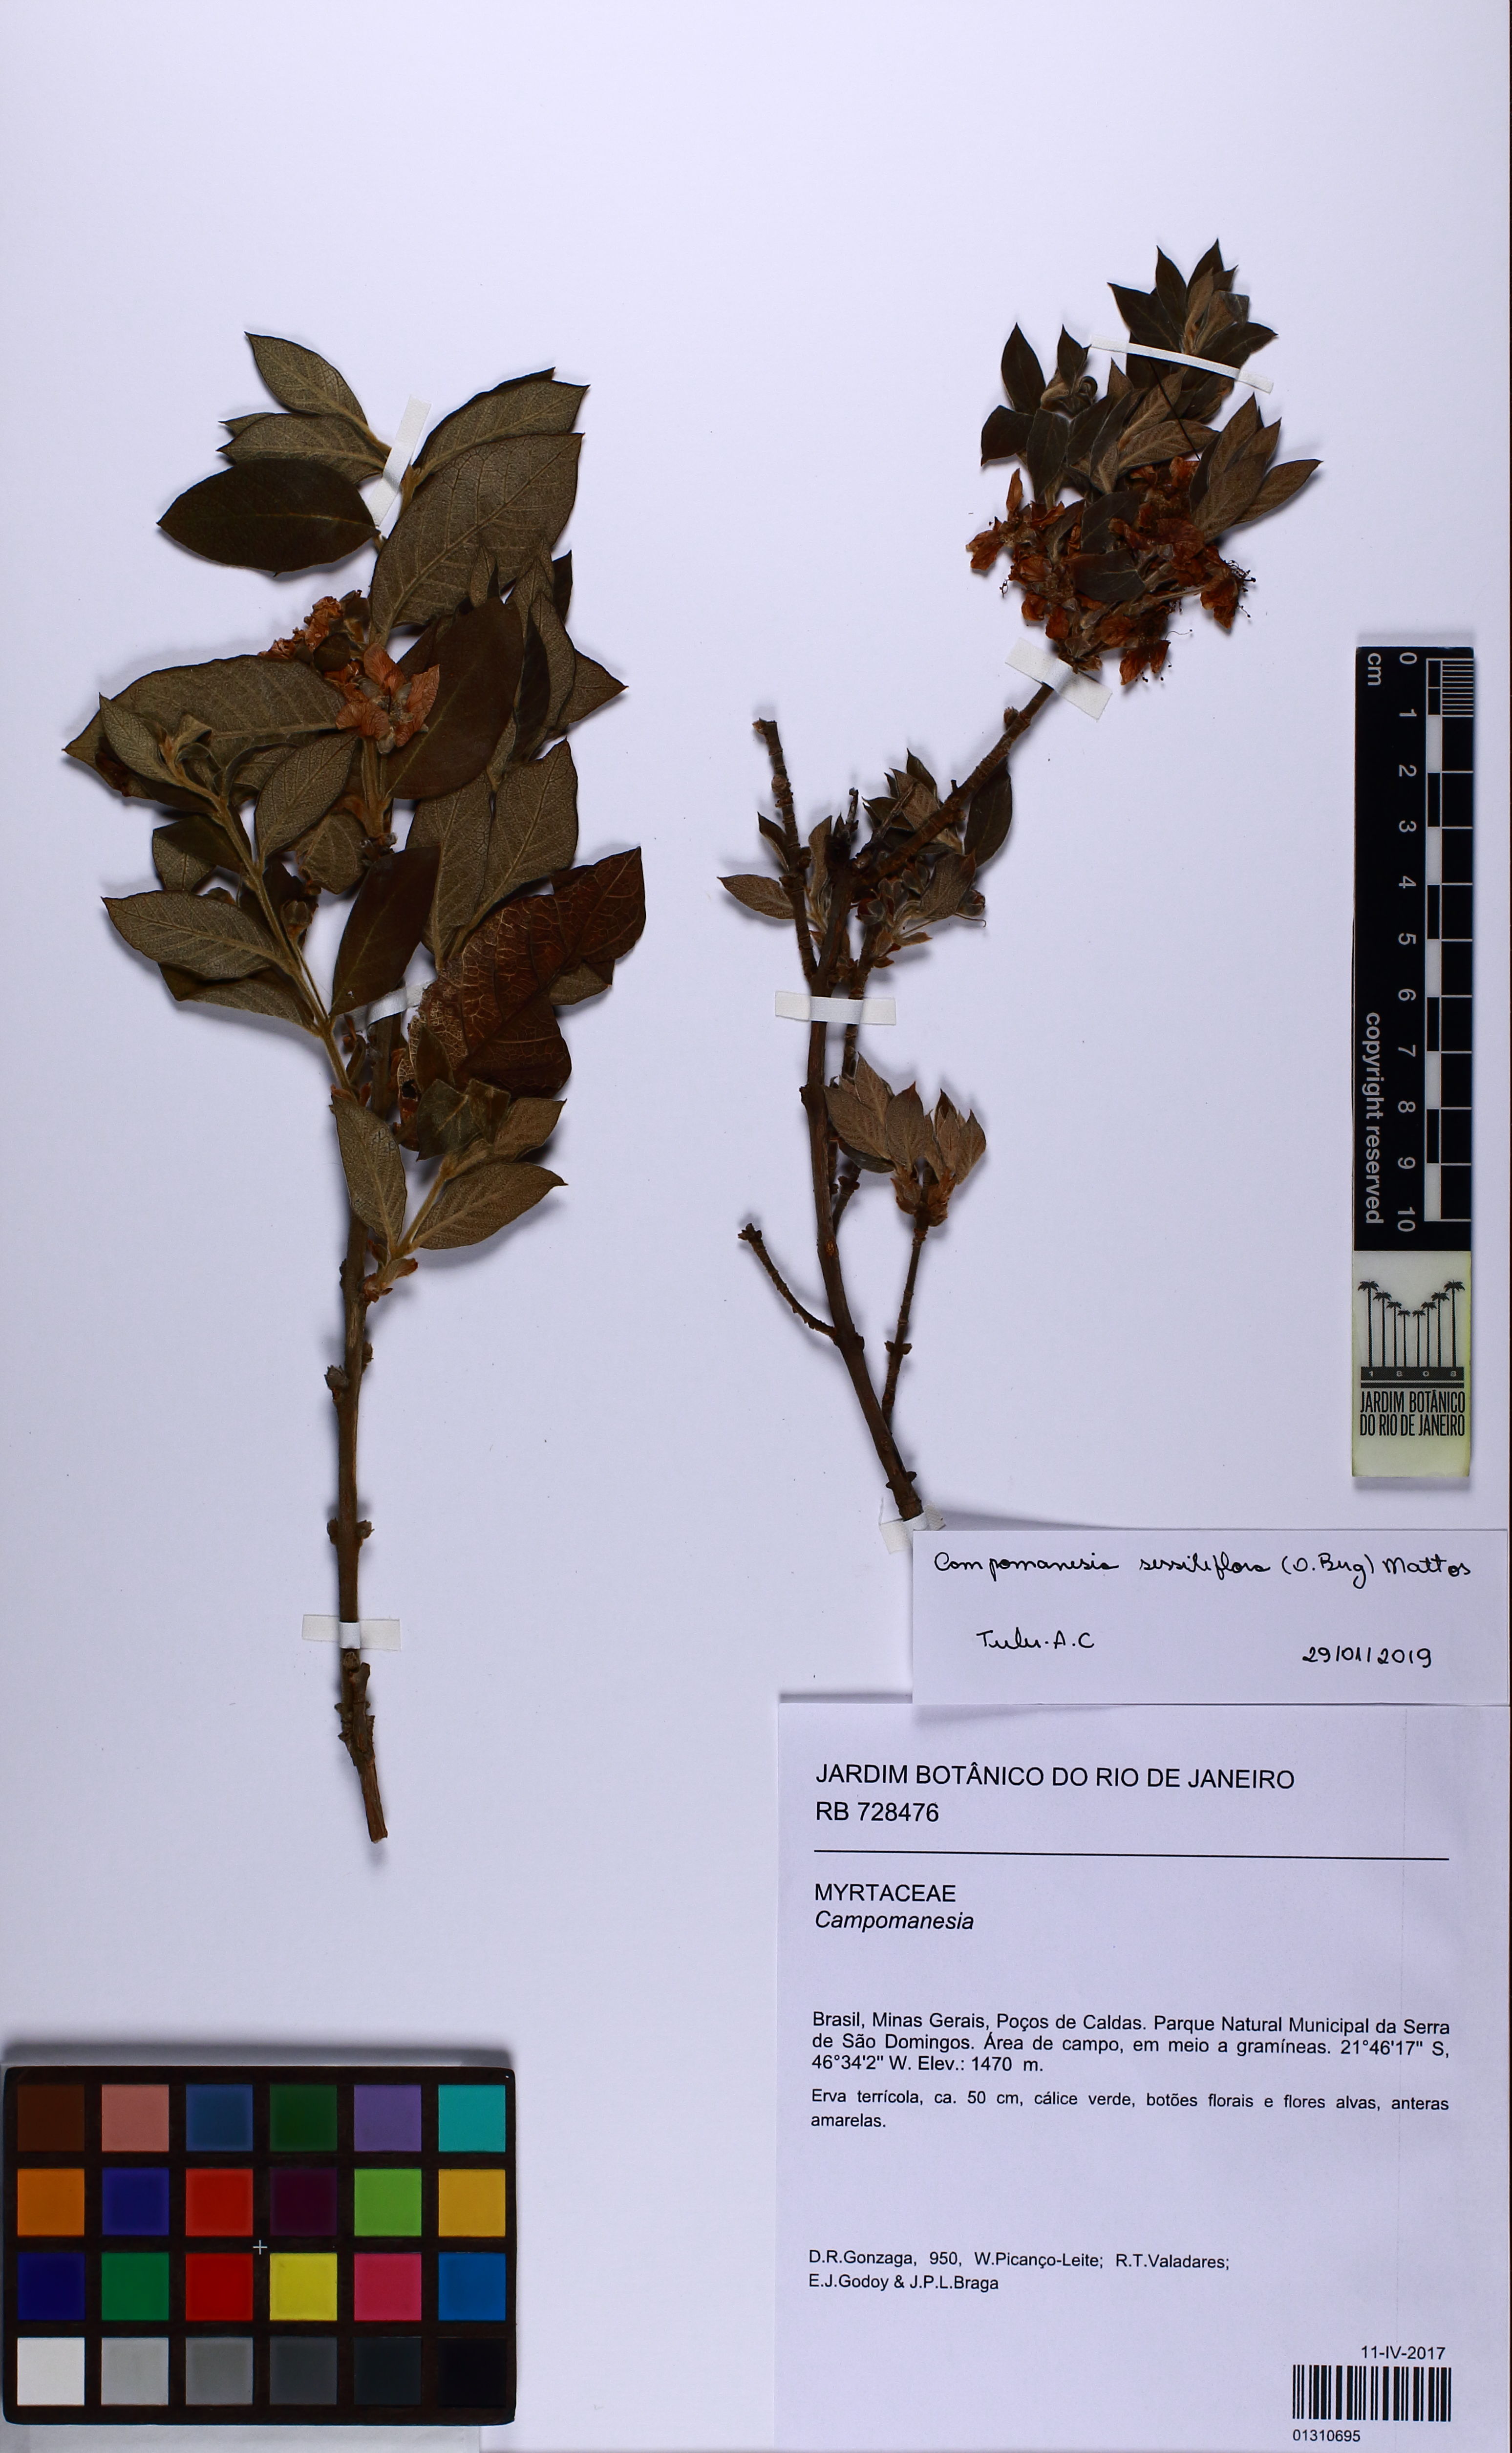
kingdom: Plantae
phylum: Tracheophyta
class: Magnoliopsida
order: Myrtales
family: Myrtaceae
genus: Campomanesia
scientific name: Campomanesia sessiliflora
